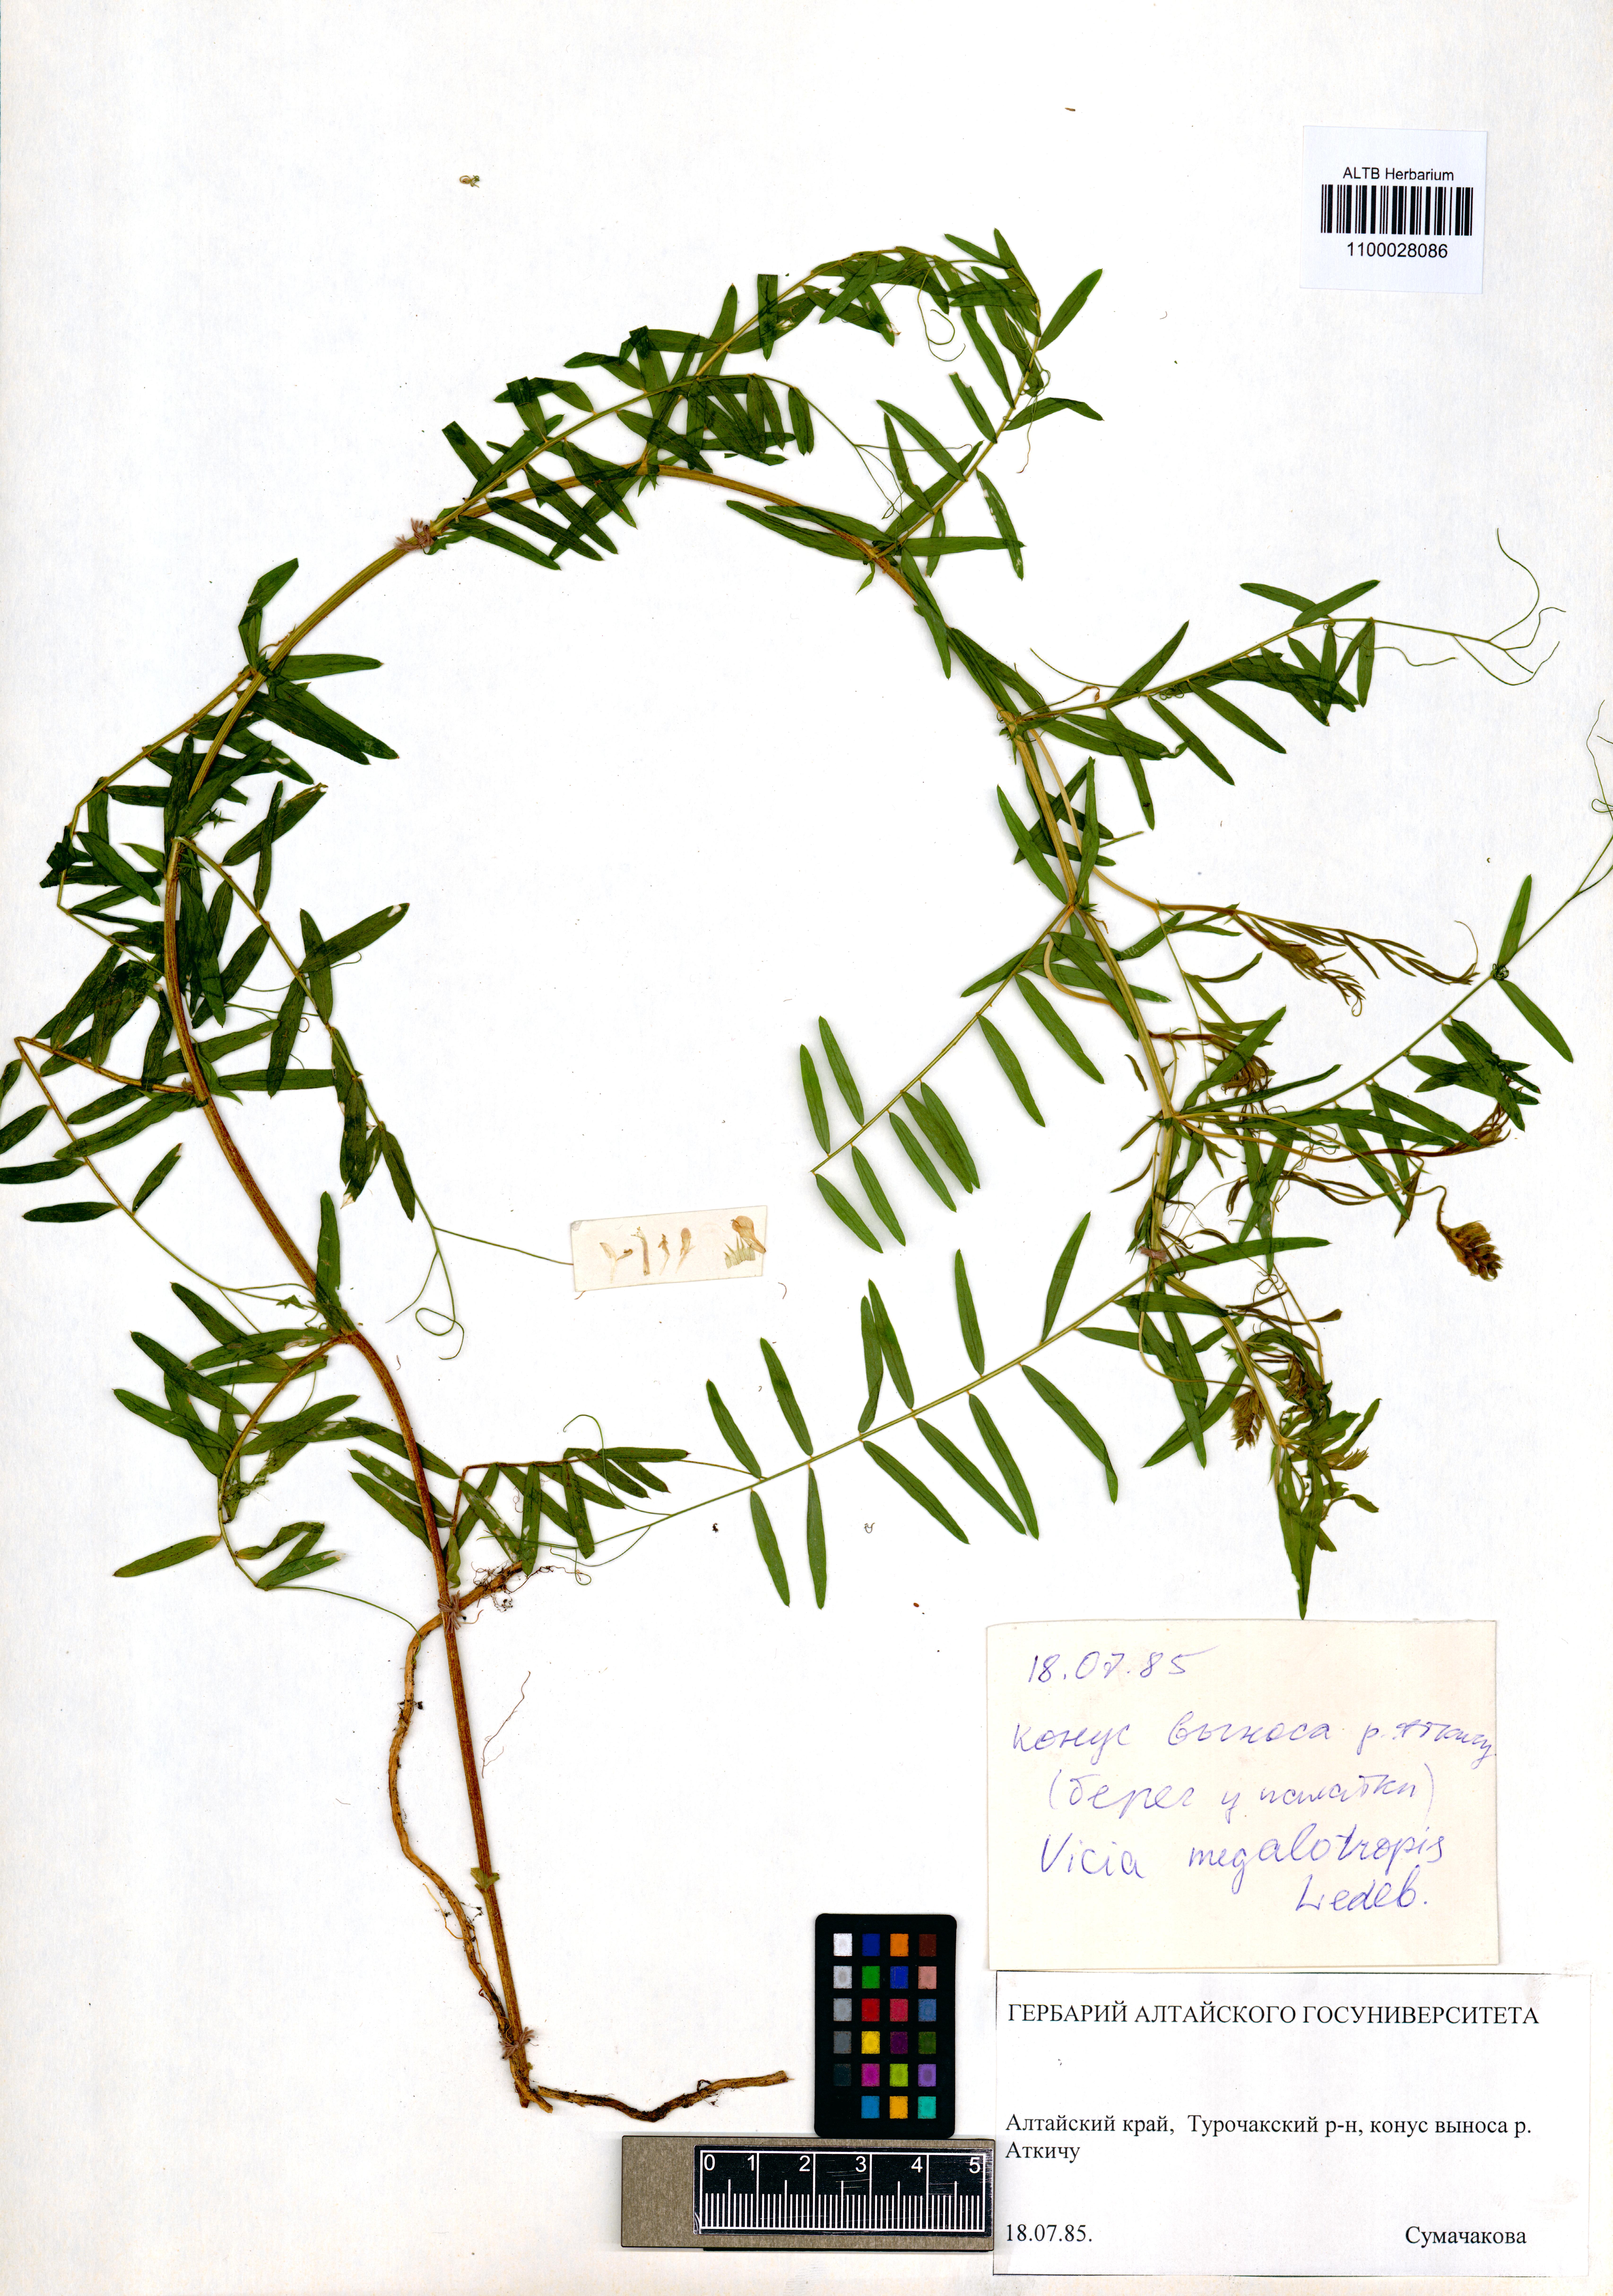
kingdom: Plantae
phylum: Tracheophyta
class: Magnoliopsida
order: Fabales
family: Fabaceae
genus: Vicia
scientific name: Vicia megalotropis
